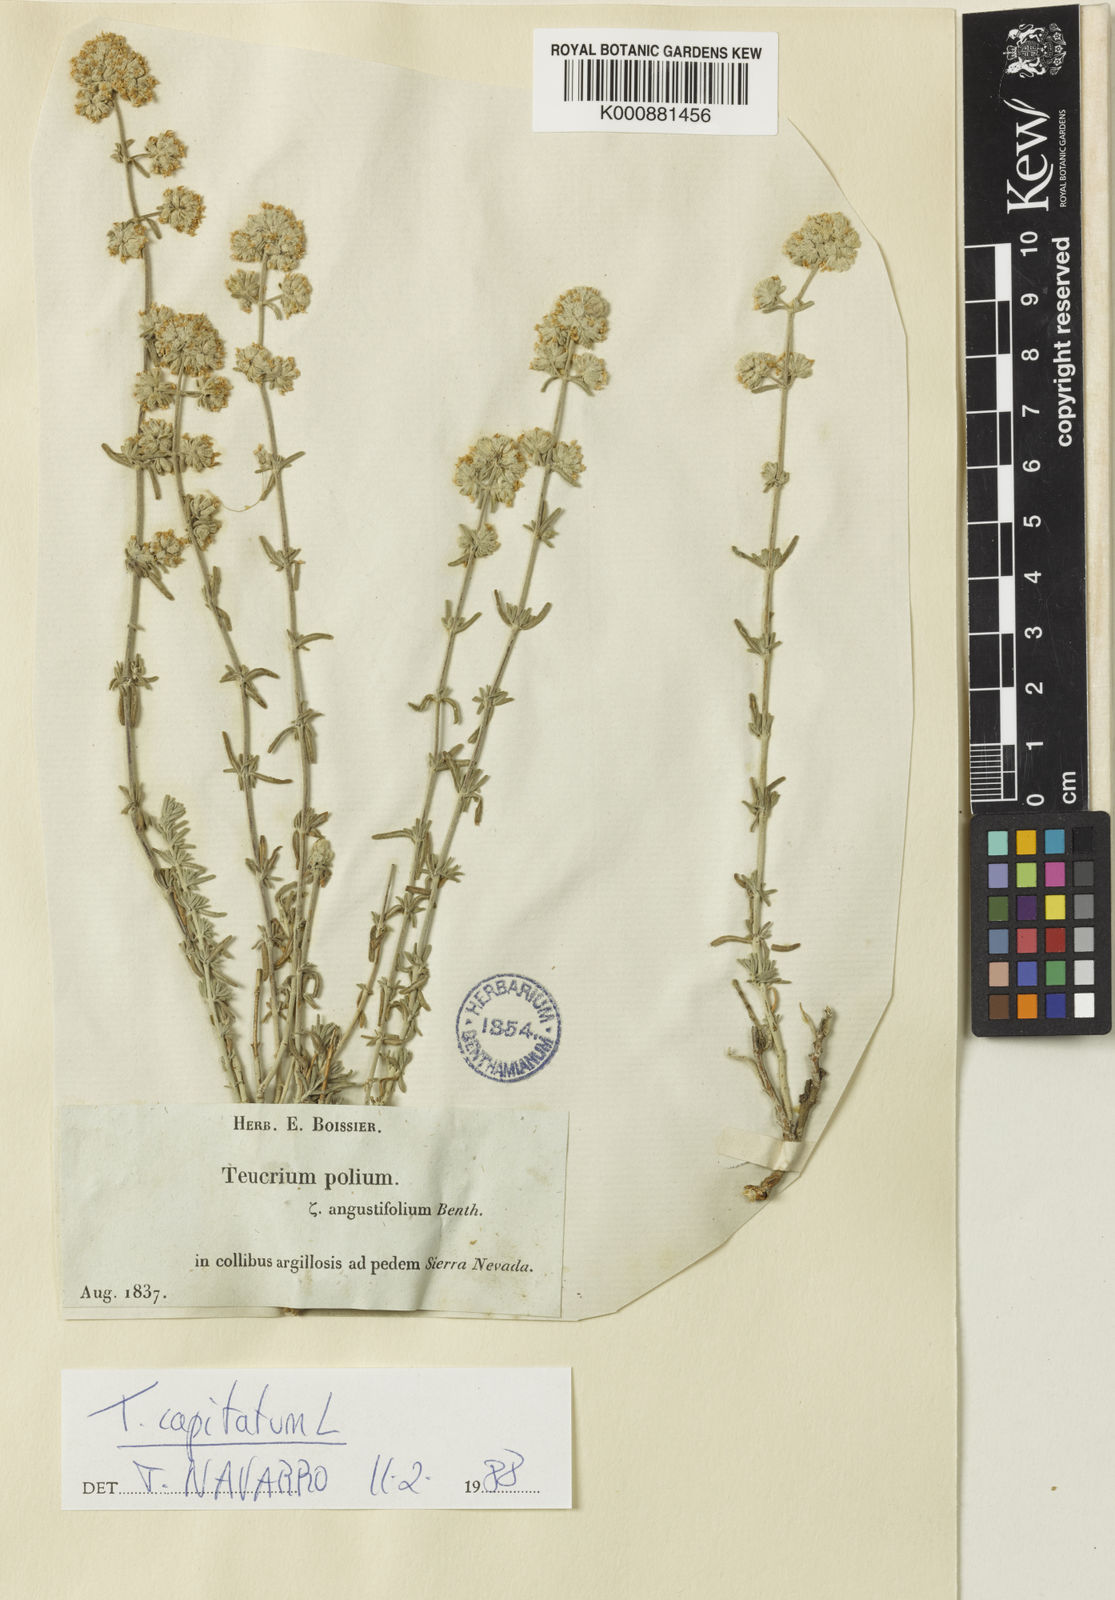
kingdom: Plantae
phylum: Tracheophyta
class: Magnoliopsida
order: Lamiales
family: Lamiaceae
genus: Teucrium
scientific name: Teucrium polium
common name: Poley
